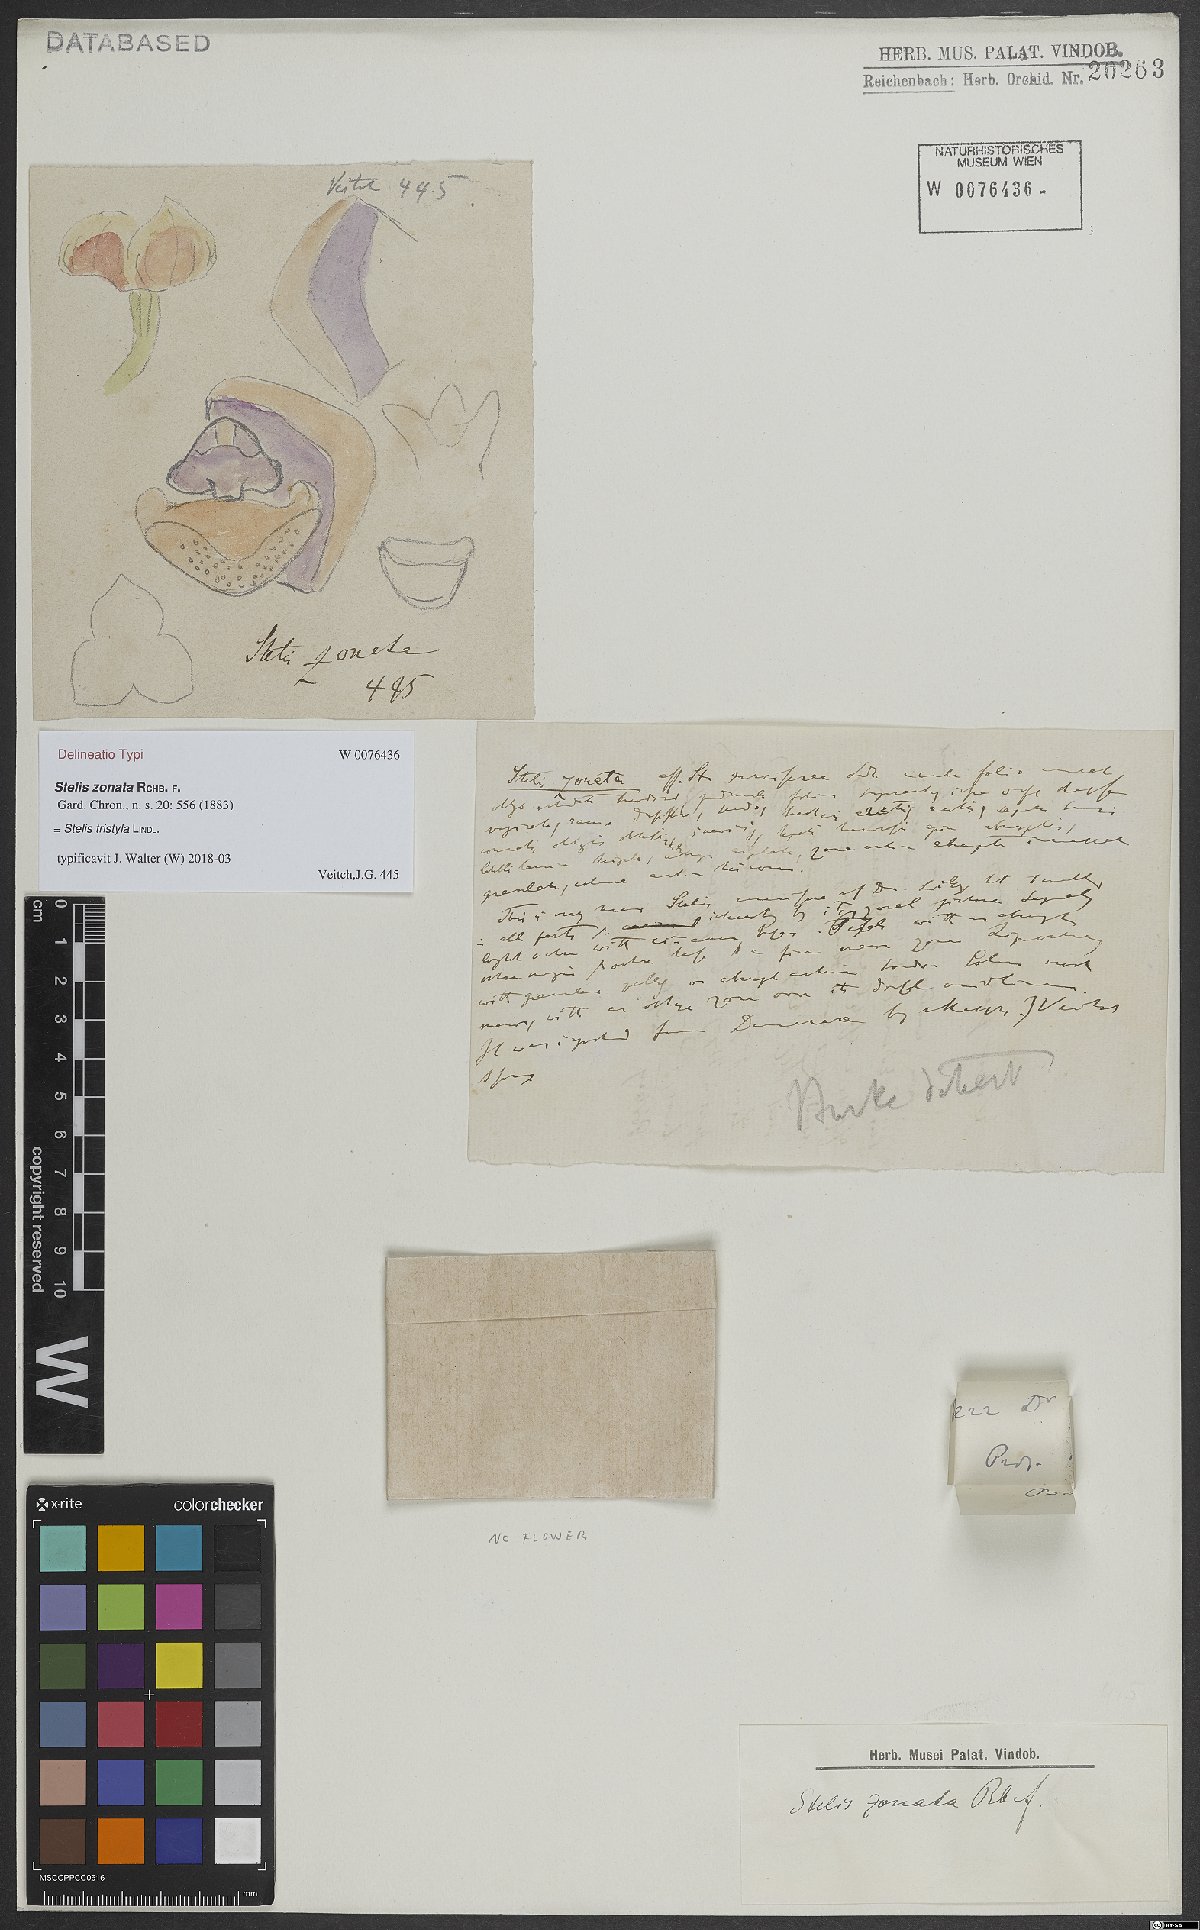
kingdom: Plantae
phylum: Tracheophyta
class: Liliopsida
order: Asparagales
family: Orchidaceae
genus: Stelis
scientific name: Stelis grandiflora
